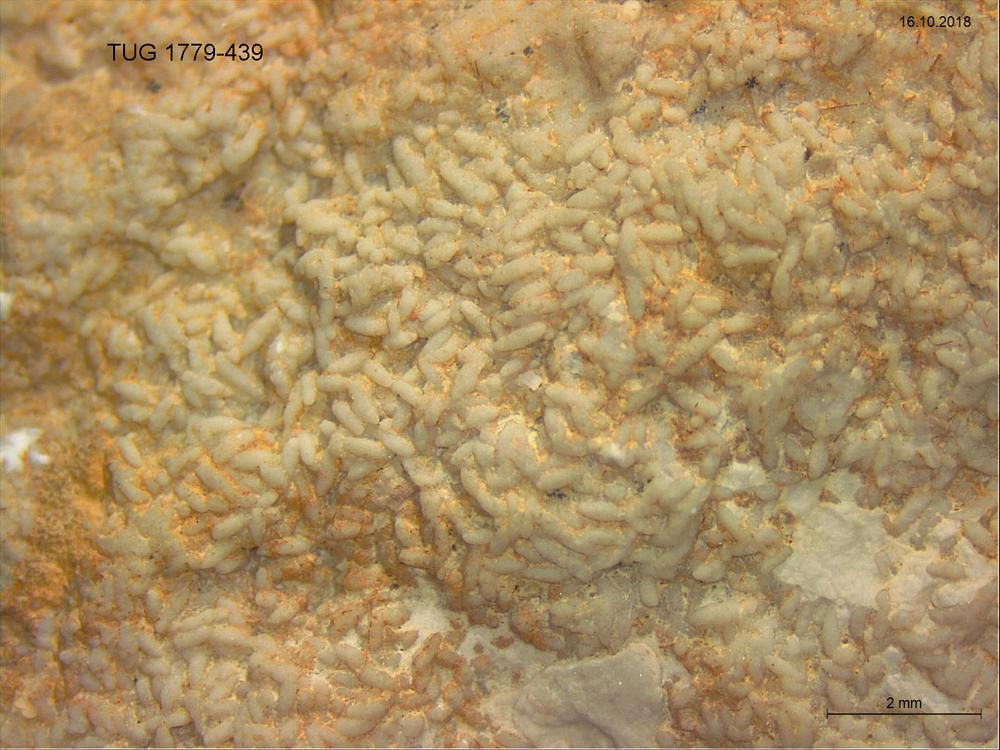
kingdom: Animalia
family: Coprulidae
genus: Coprulus
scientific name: Coprulus
